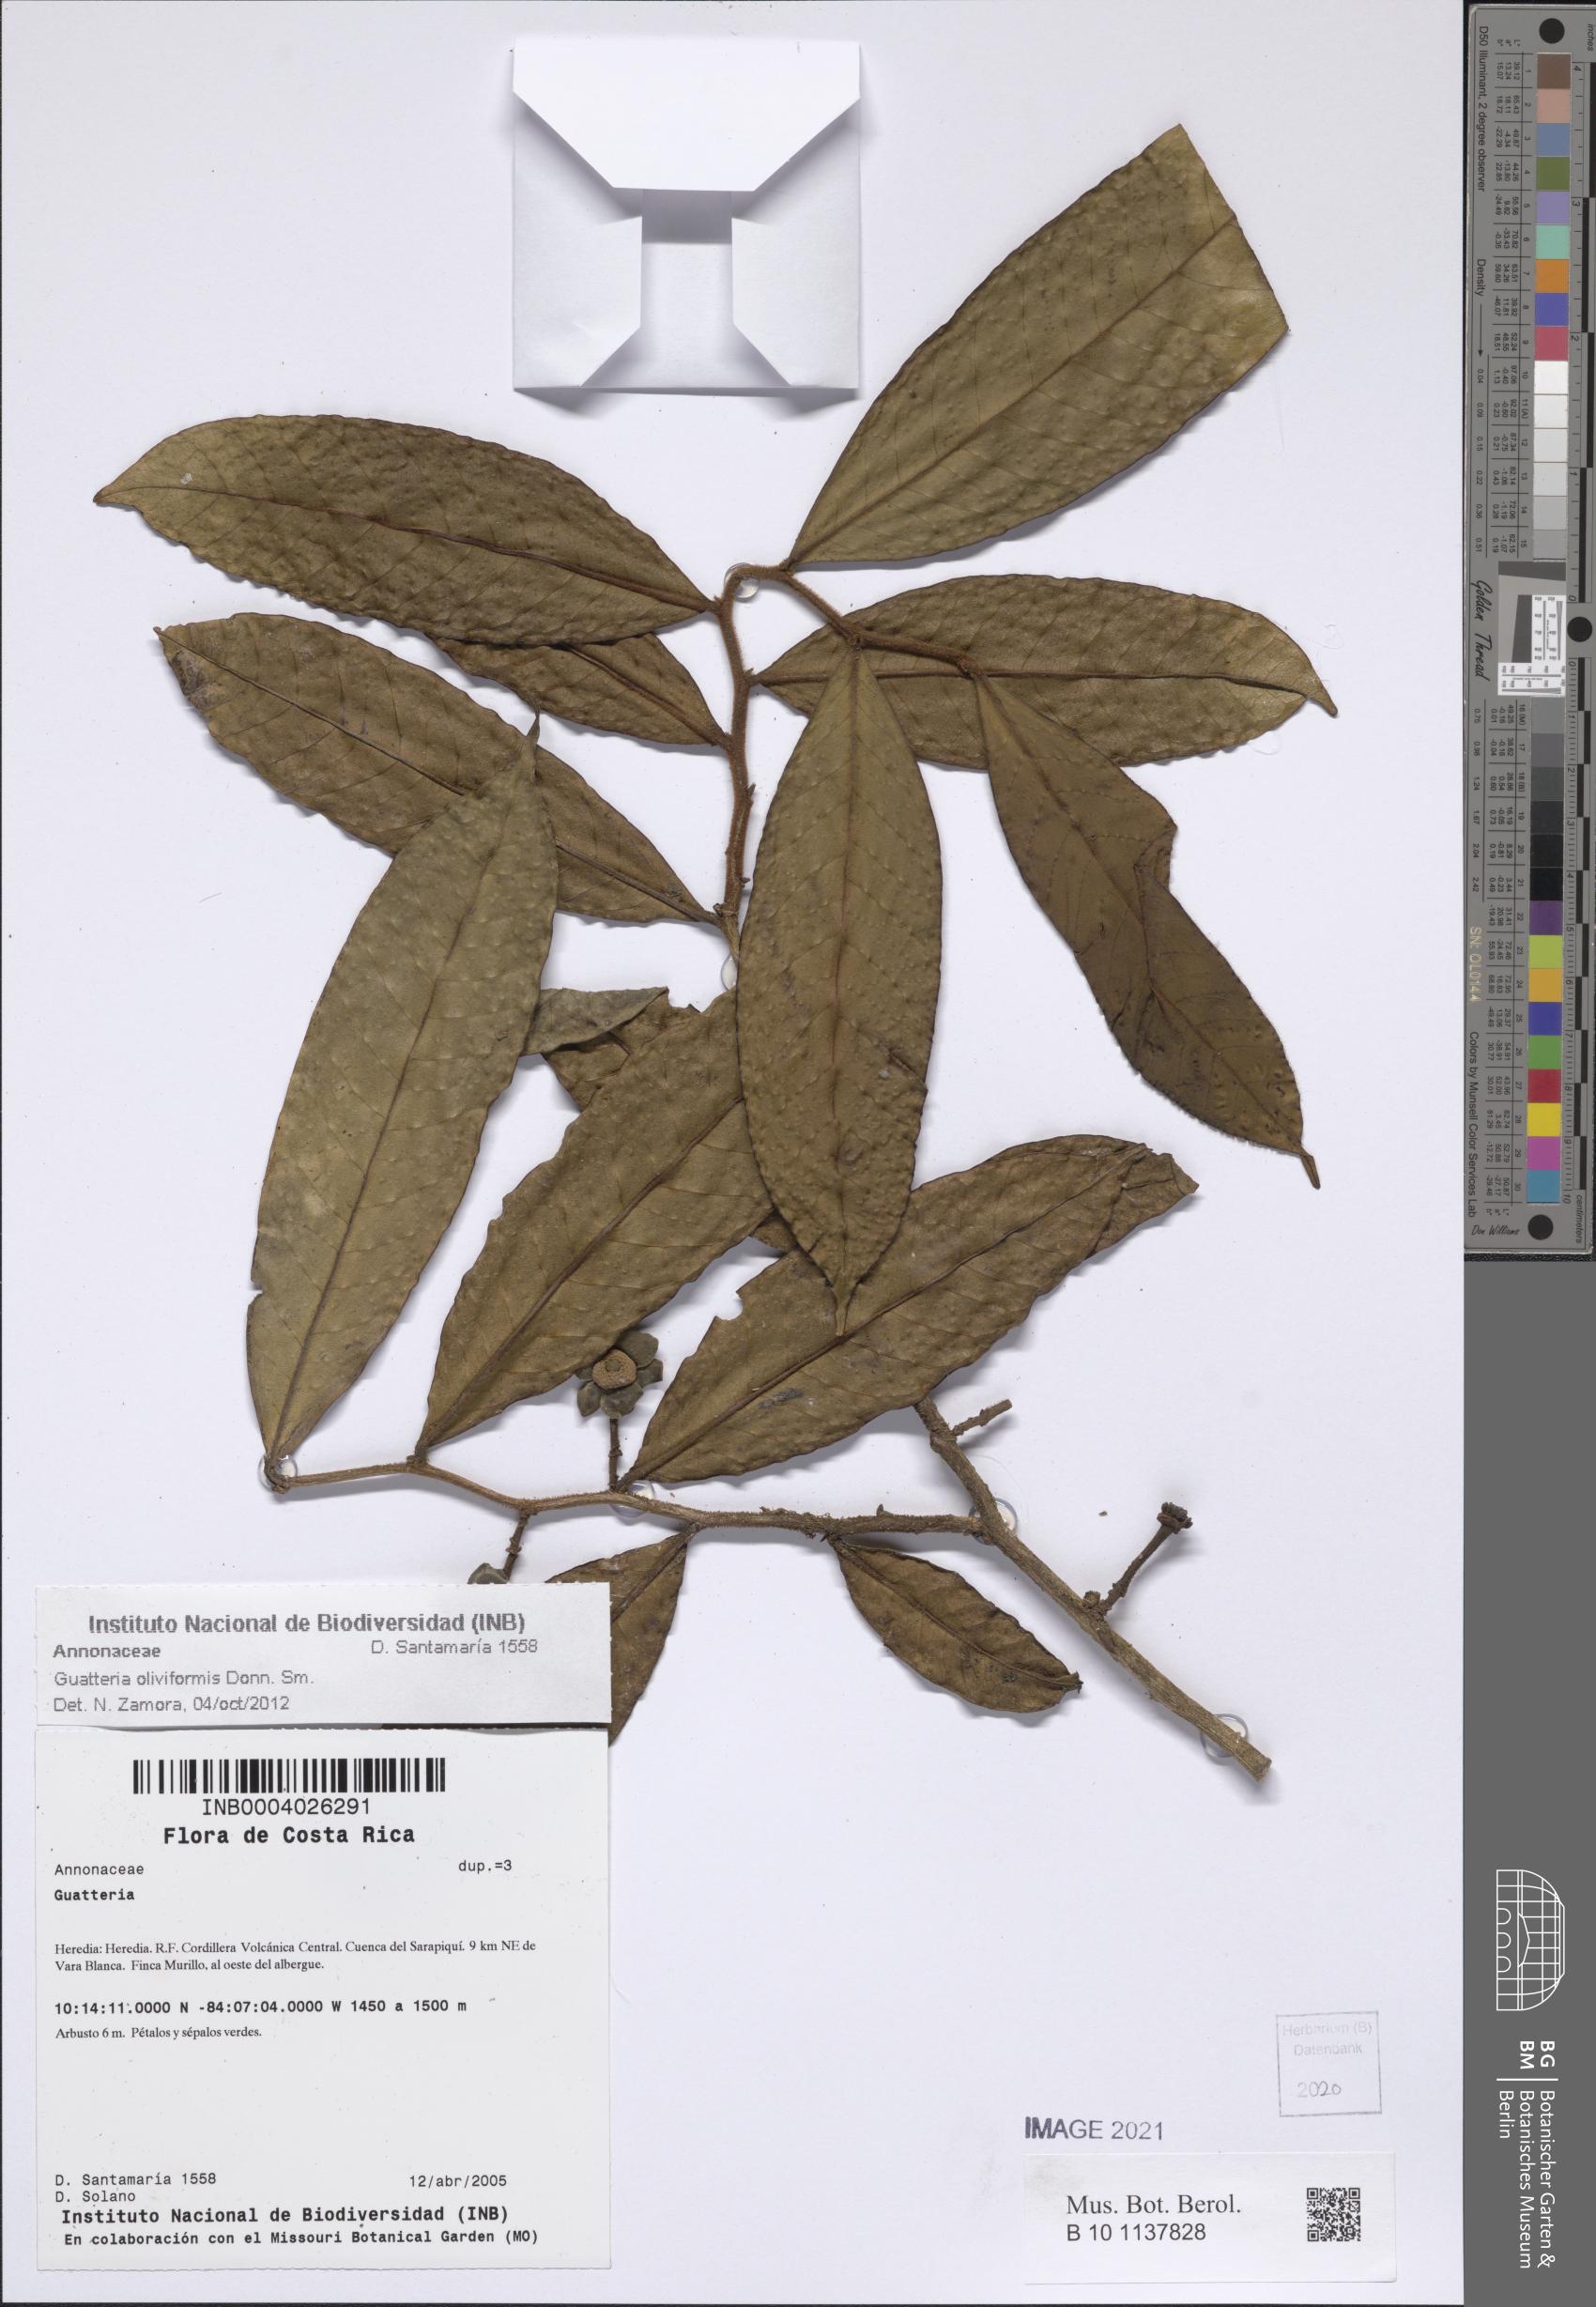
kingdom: Plantae
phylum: Tracheophyta
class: Magnoliopsida
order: Magnoliales
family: Annonaceae
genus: Guatteria
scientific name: Guatteria oliviformis
